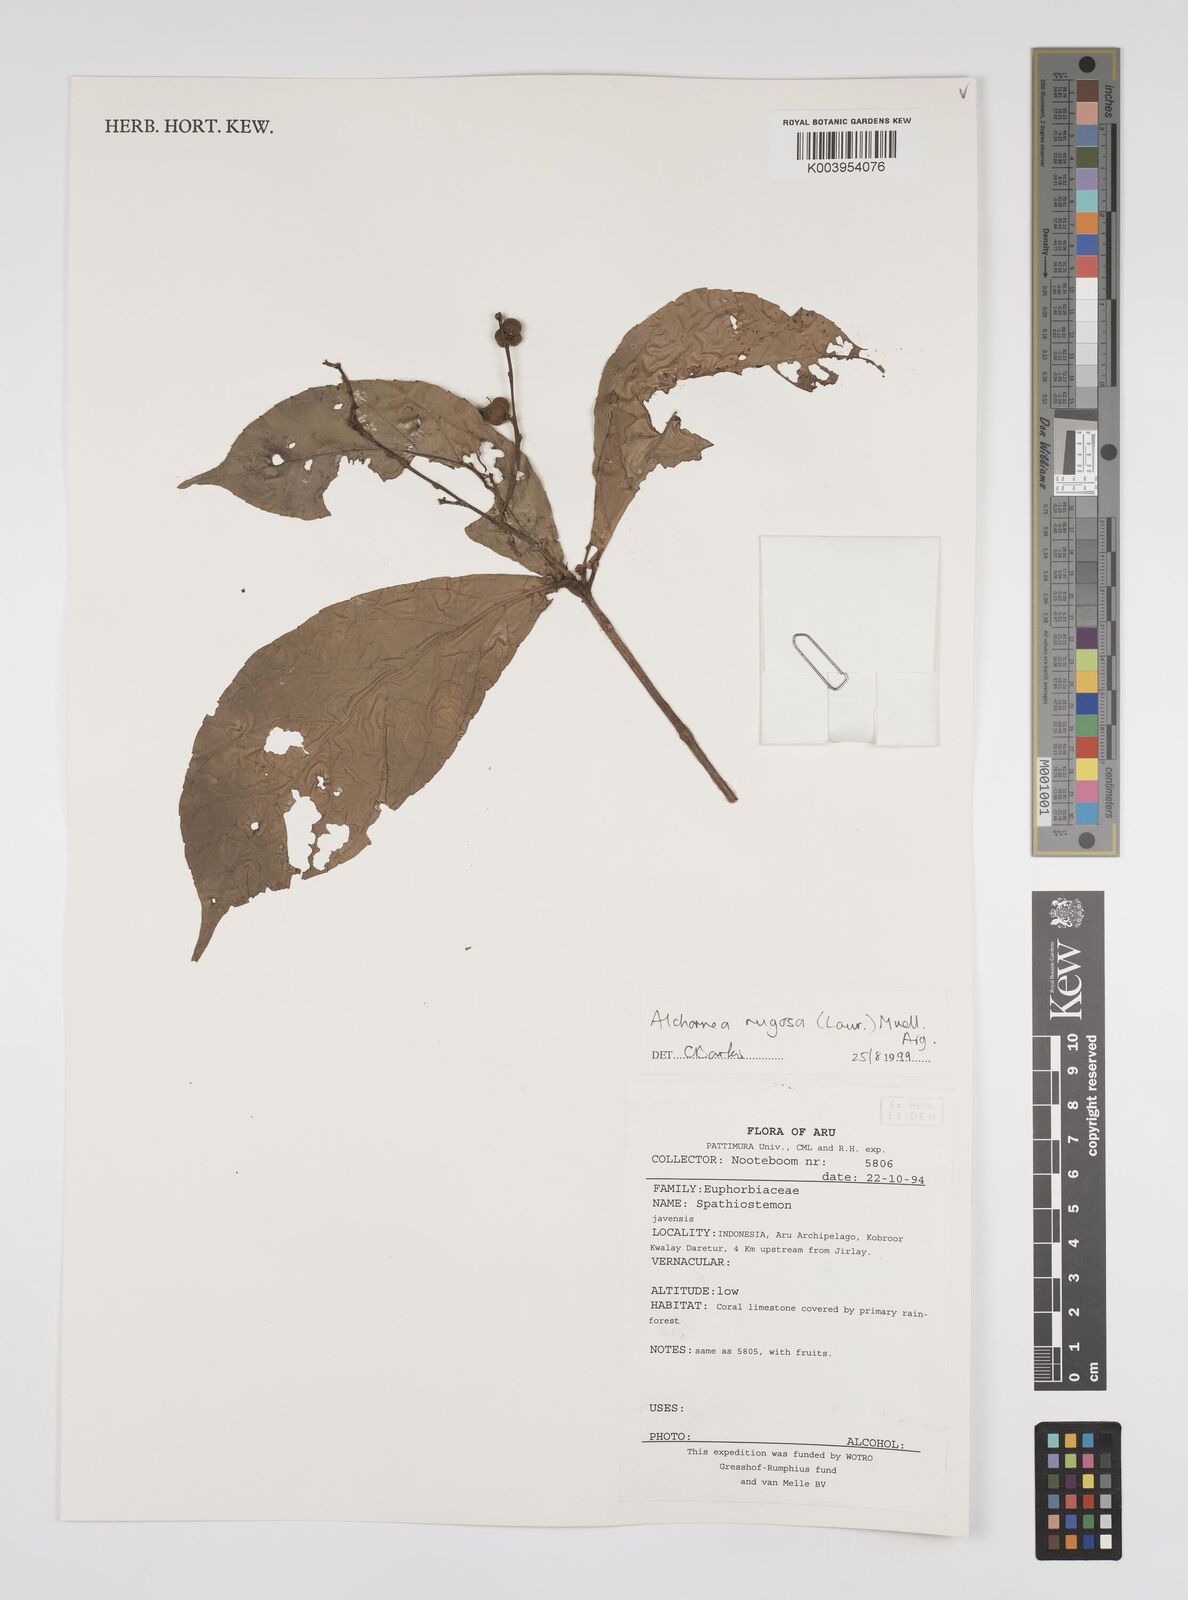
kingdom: Plantae
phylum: Tracheophyta
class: Magnoliopsida
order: Malpighiales
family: Euphorbiaceae
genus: Alchornea
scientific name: Alchornea rugosa
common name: Alchorntree
